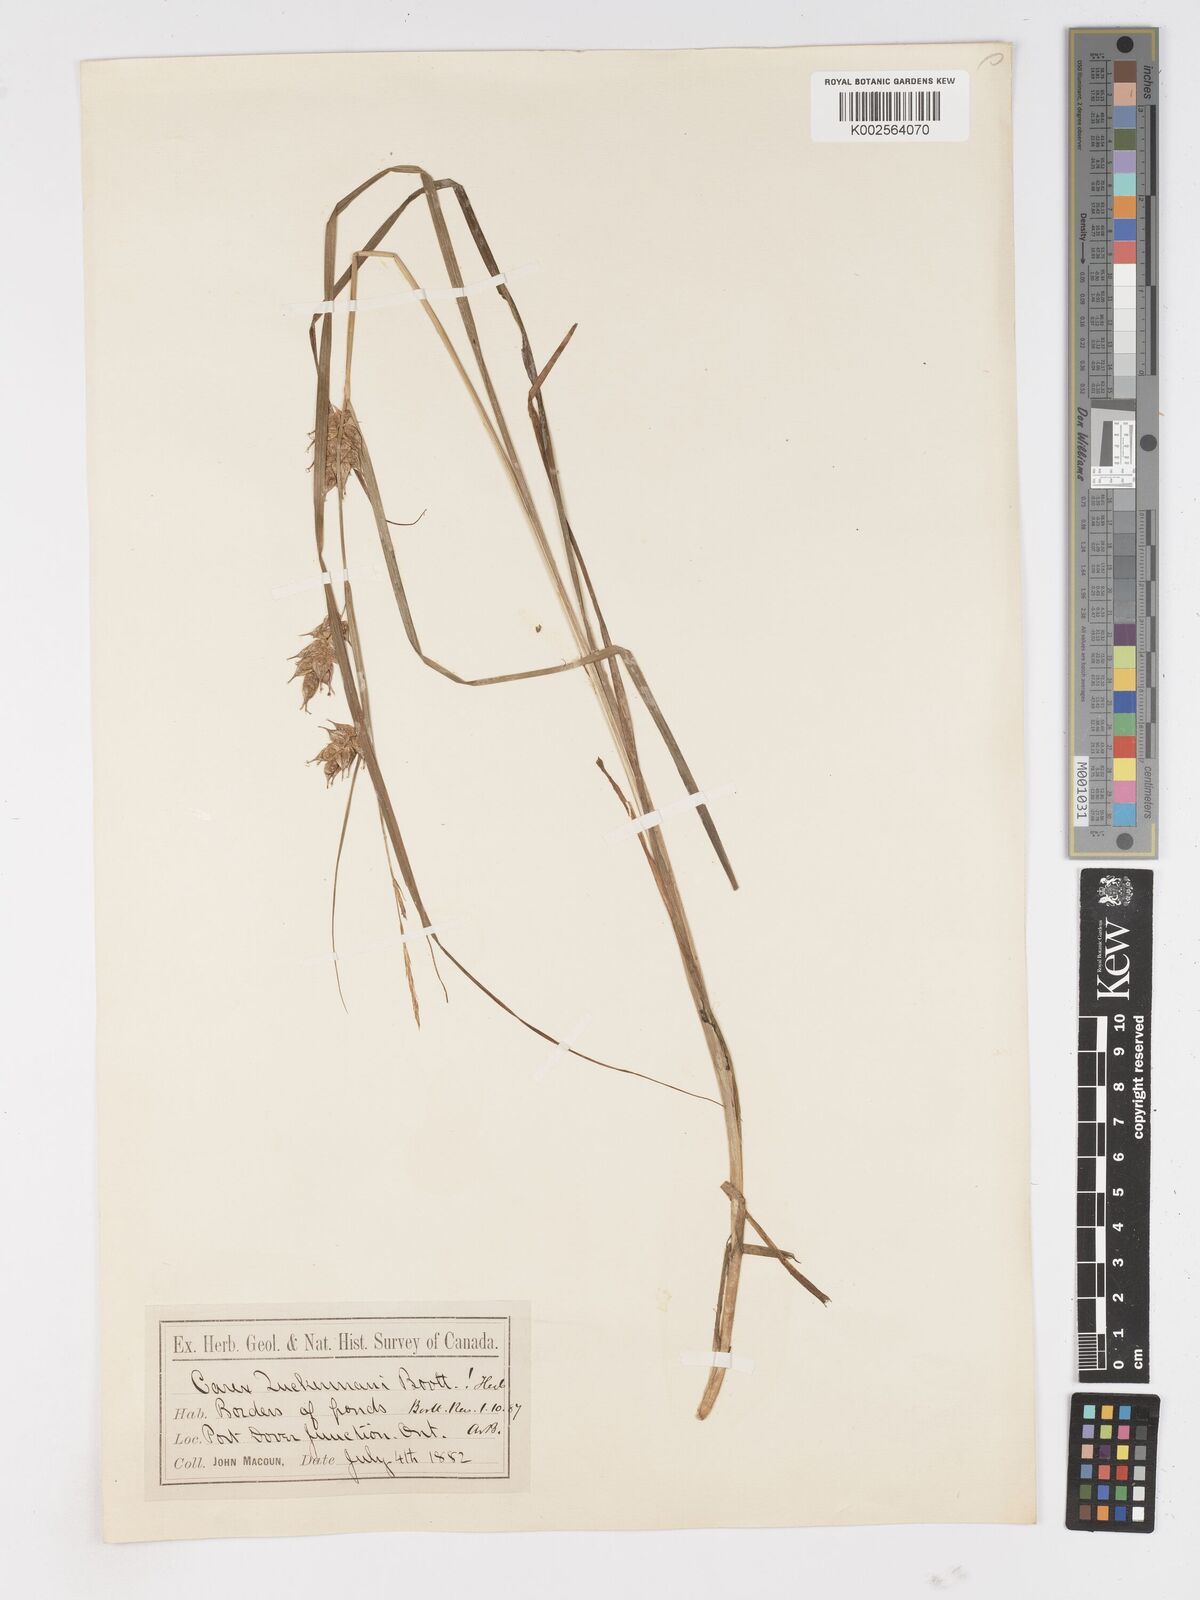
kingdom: Plantae
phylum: Tracheophyta
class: Liliopsida
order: Poales
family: Cyperaceae
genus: Carex
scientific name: Carex tuckermanii
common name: Tuckerman's sedge
